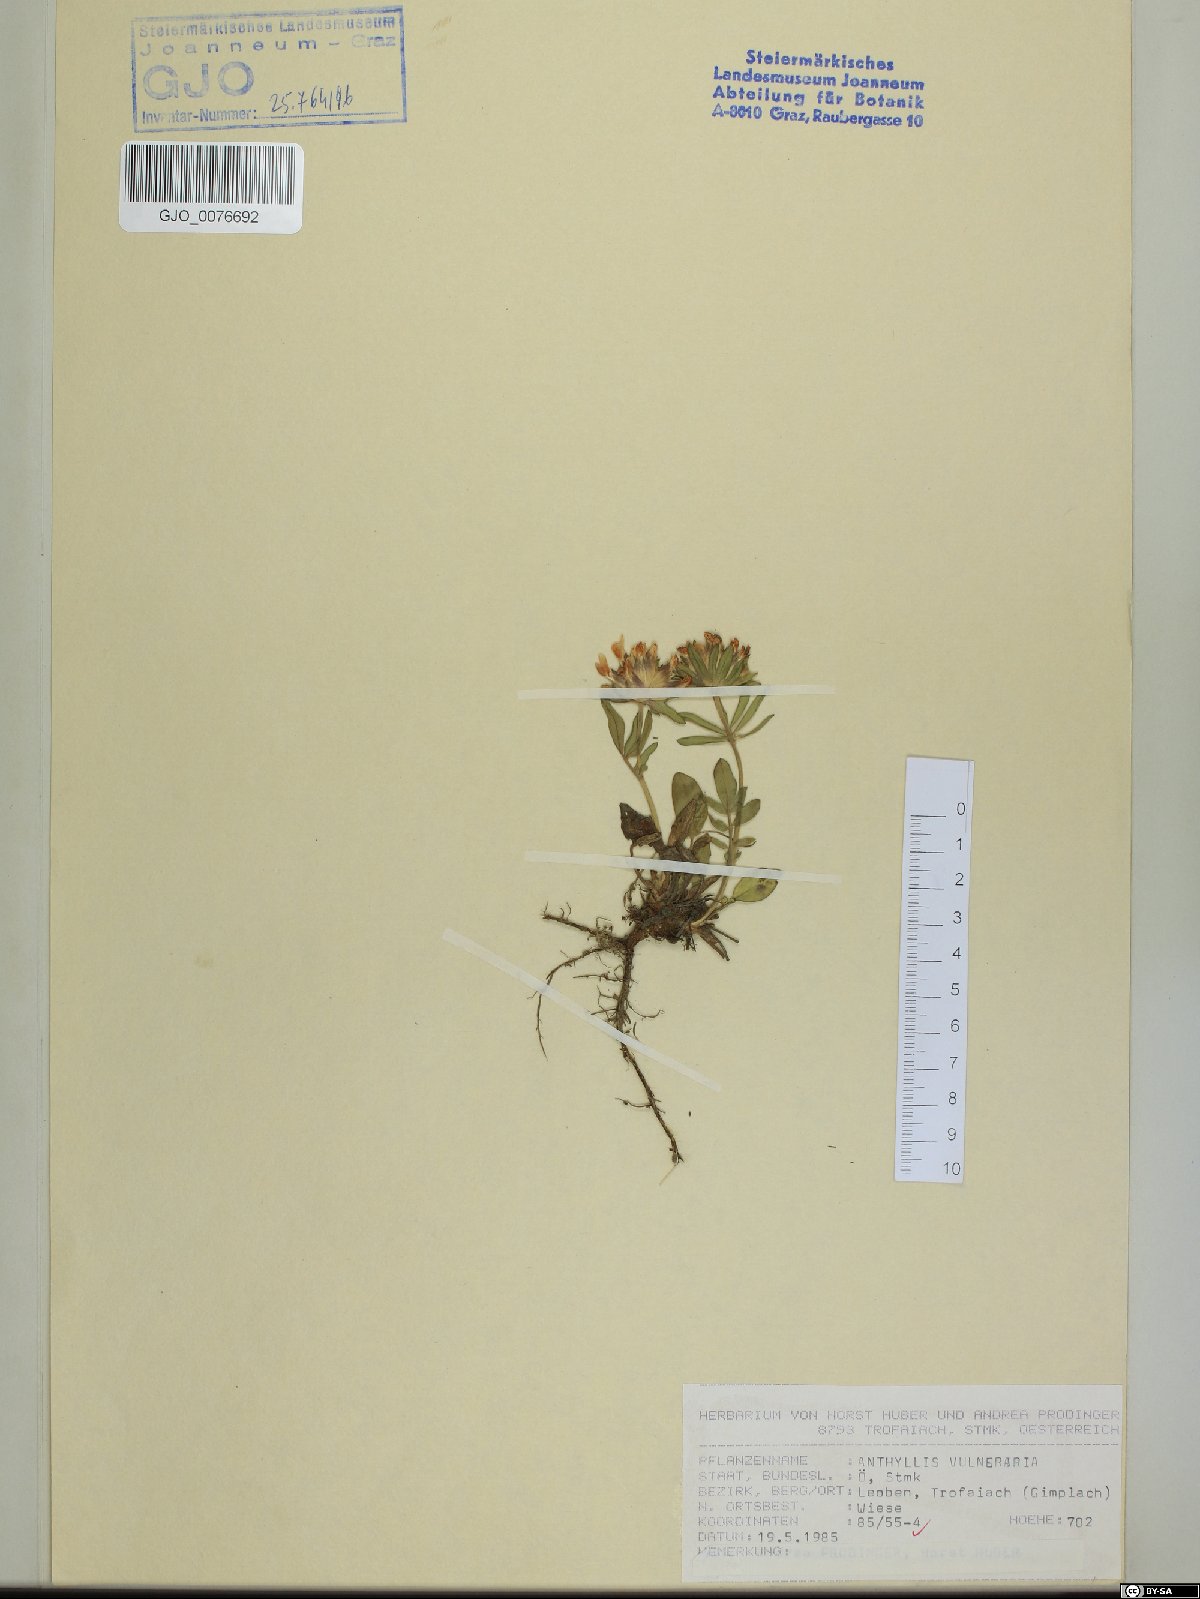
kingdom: Plantae
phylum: Tracheophyta
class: Magnoliopsida
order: Fabales
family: Fabaceae
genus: Anthyllis
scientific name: Anthyllis vulneraria
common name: Kidney vetch
